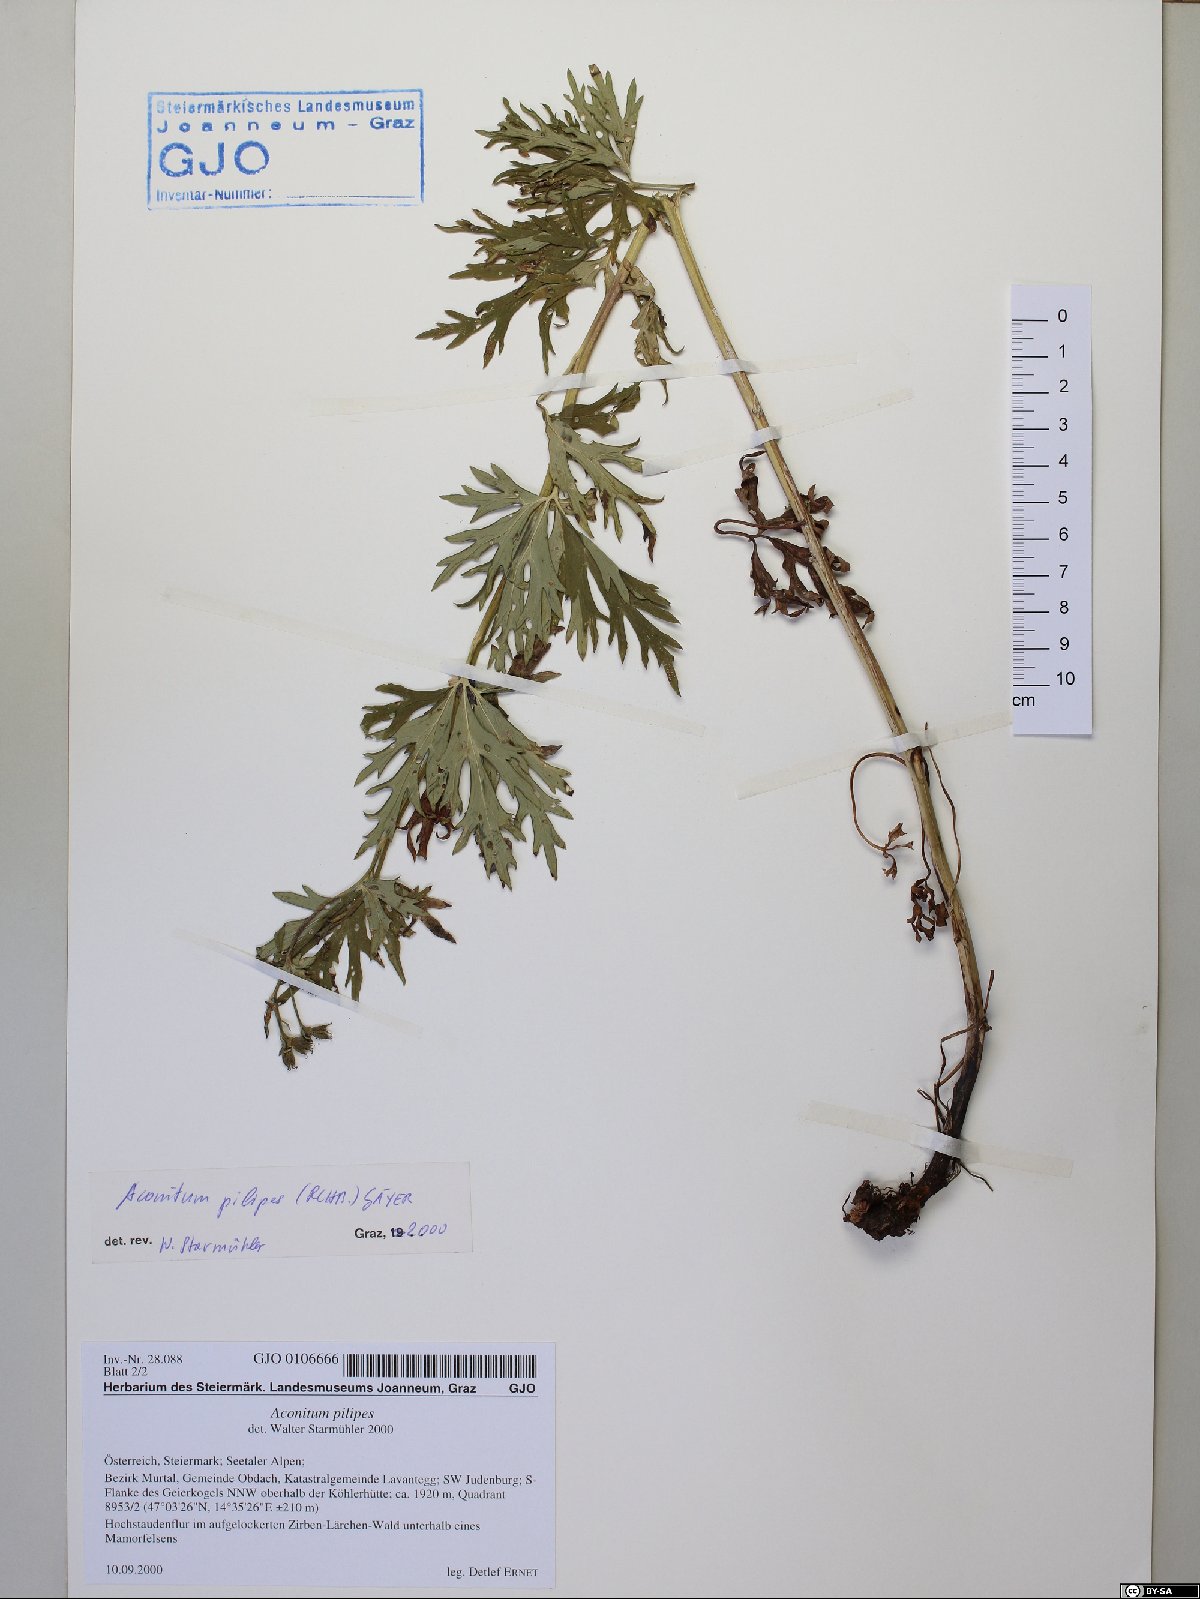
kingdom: Plantae
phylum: Tracheophyta
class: Magnoliopsida
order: Ranunculales
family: Ranunculaceae
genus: Aconitum
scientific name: Aconitum pilipes
